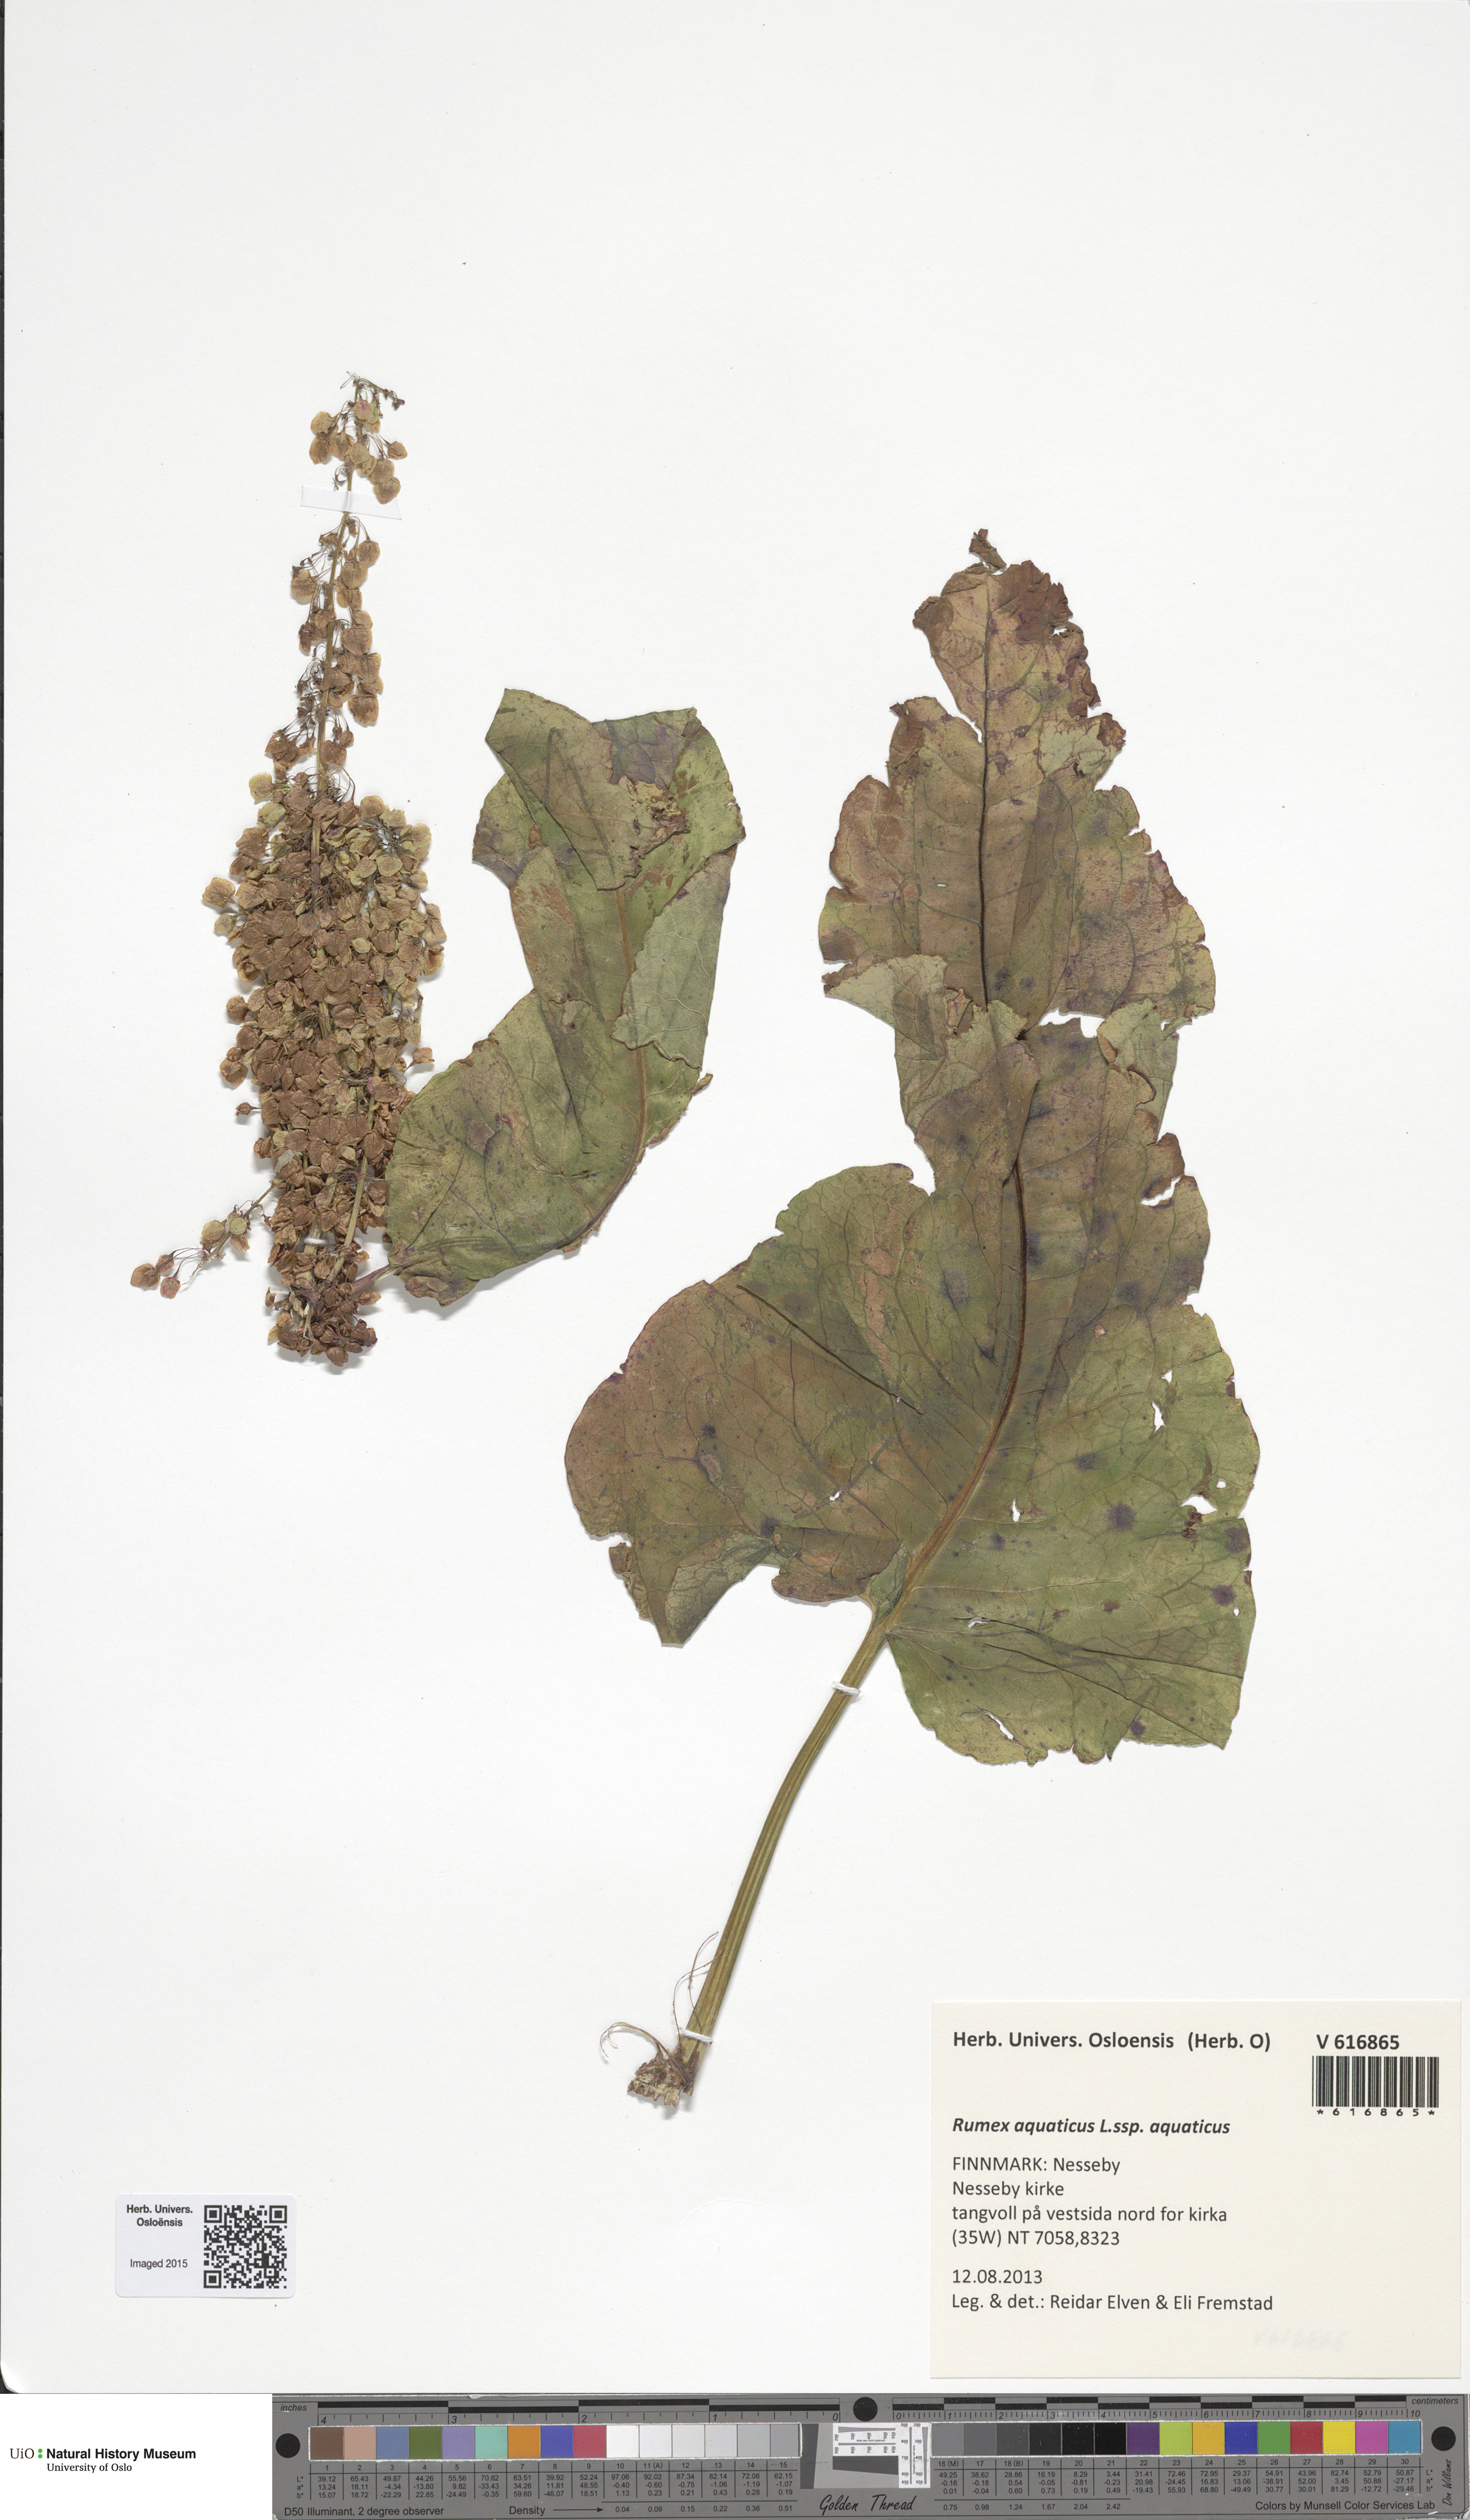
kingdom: Plantae
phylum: Tracheophyta
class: Magnoliopsida
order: Caryophyllales
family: Polygonaceae
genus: Rumex
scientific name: Rumex aquaticus
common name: Scottish dock
